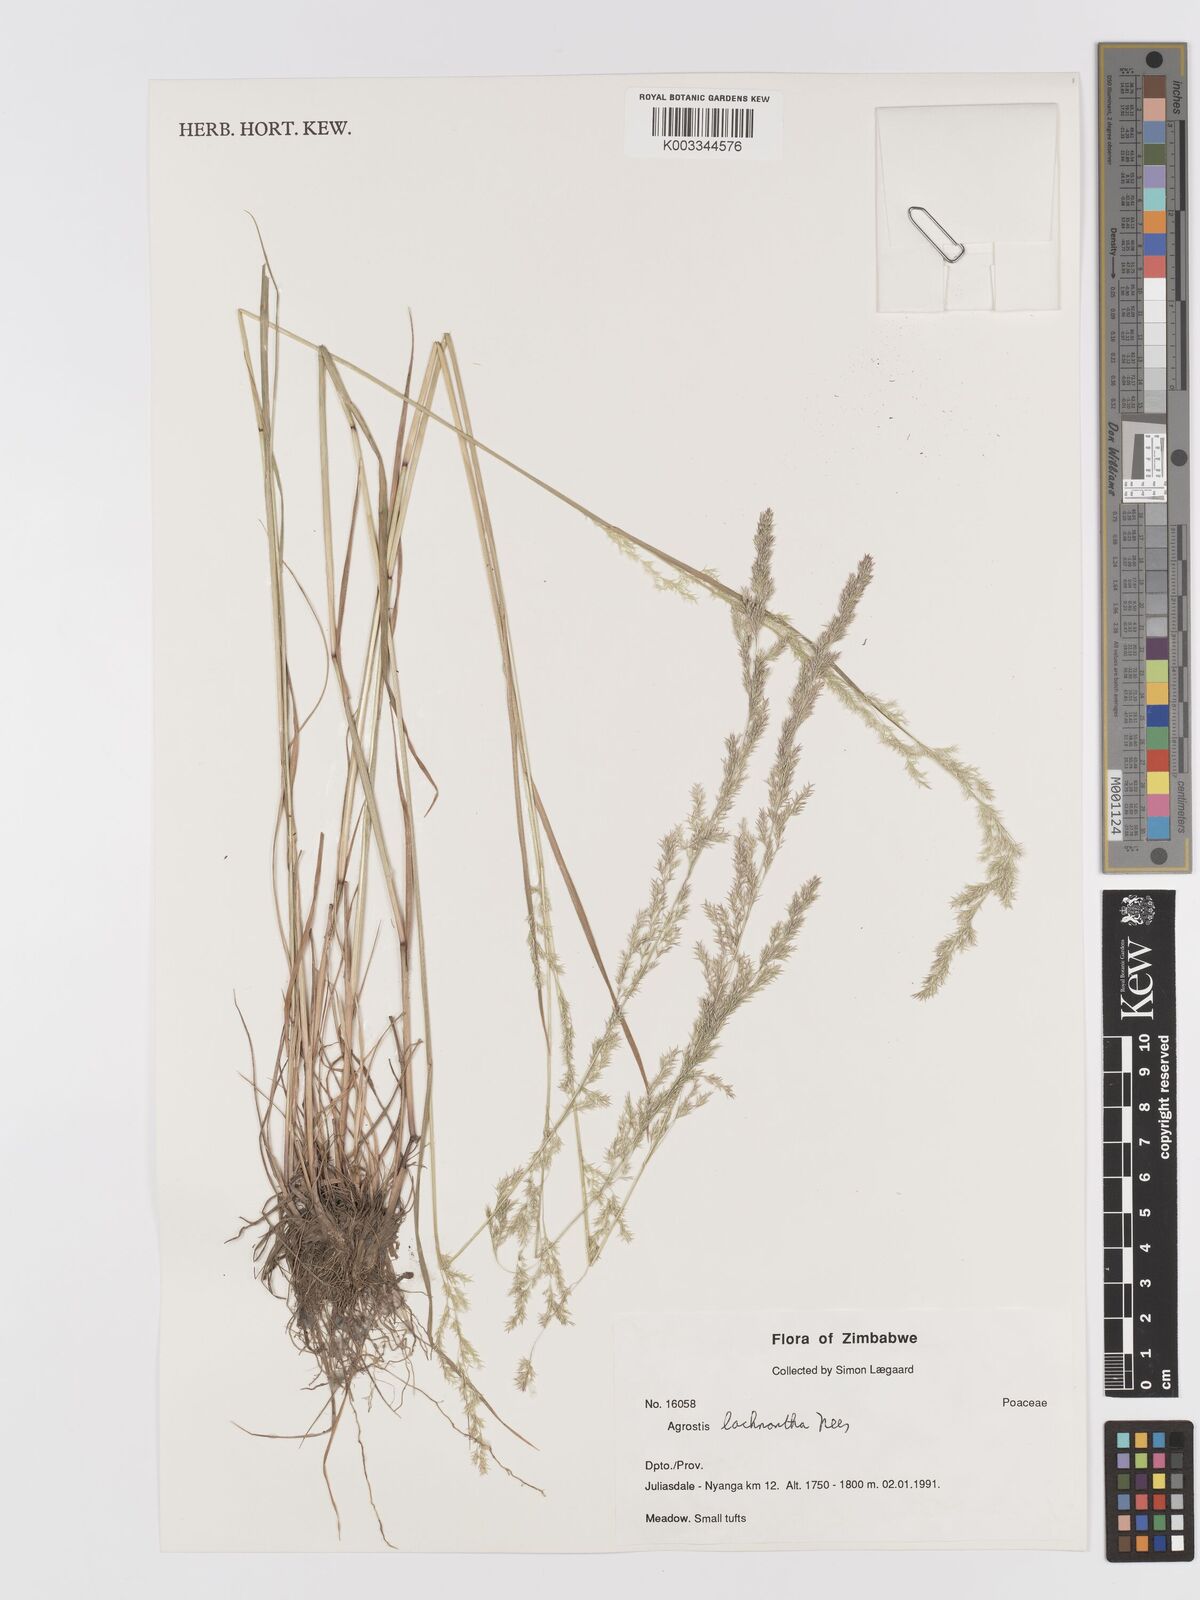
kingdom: Plantae
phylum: Tracheophyta
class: Liliopsida
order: Poales
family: Poaceae
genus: Lachnagrostis
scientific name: Lachnagrostis lachnantha
